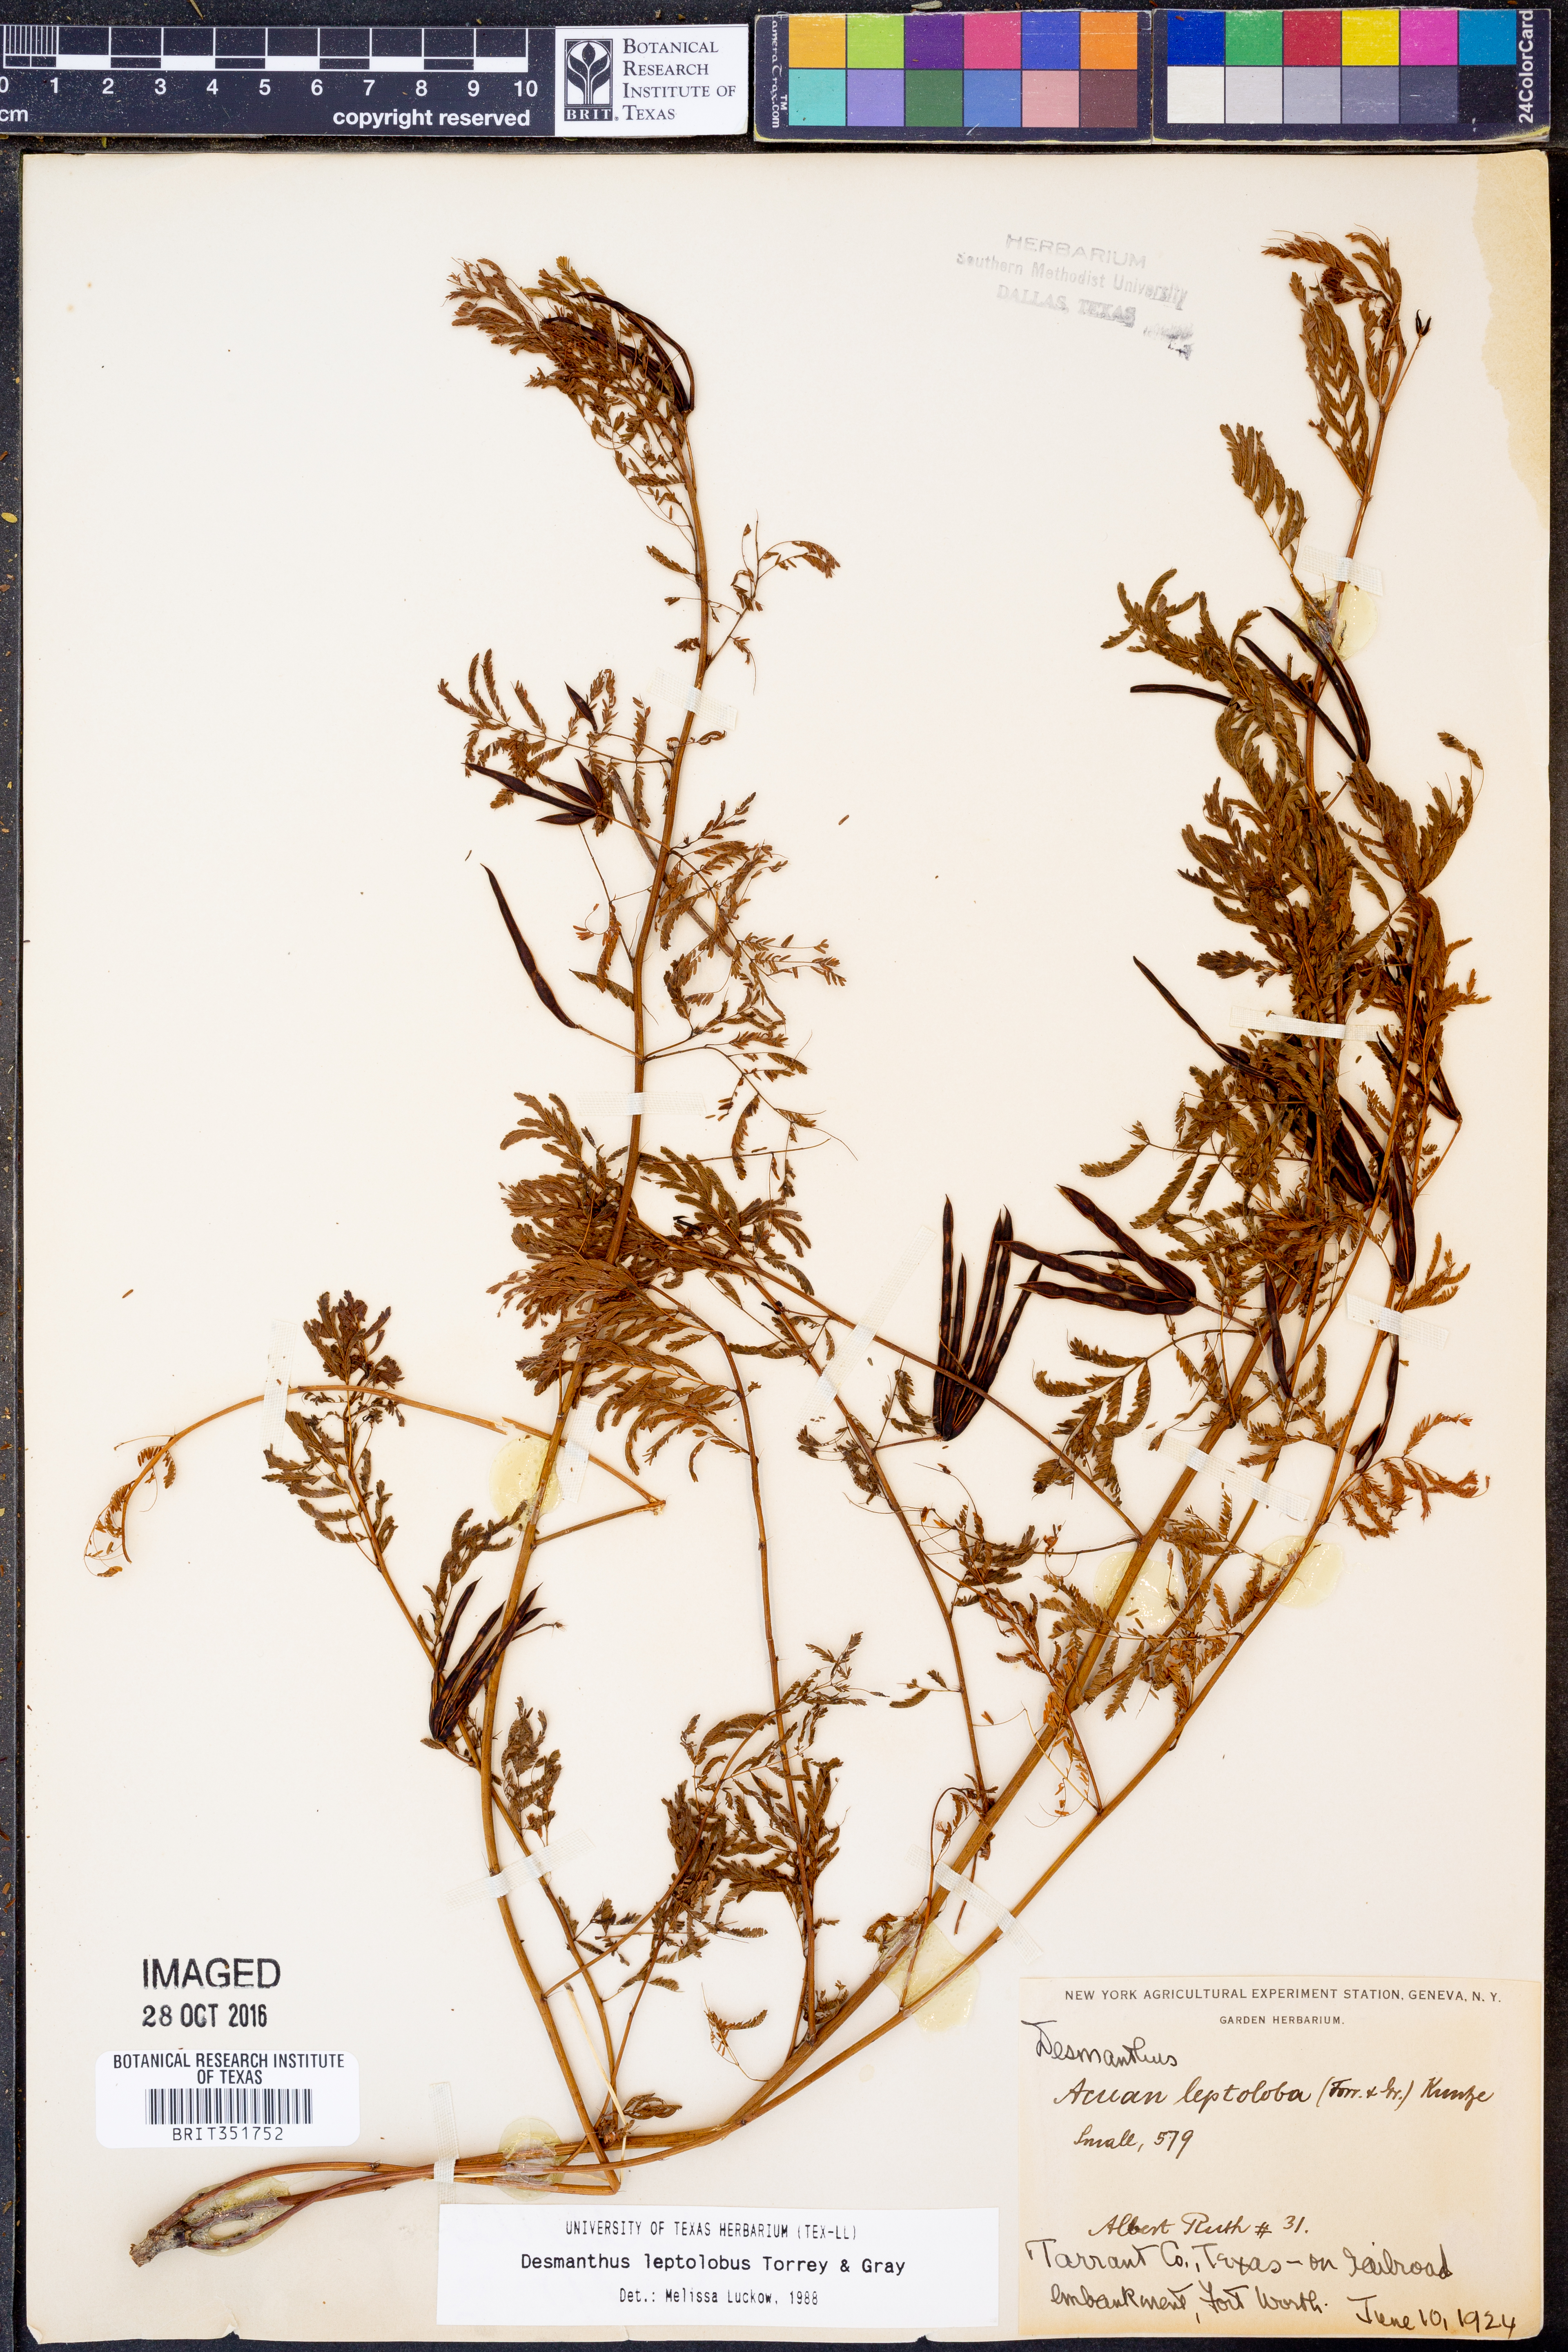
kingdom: Plantae
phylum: Tracheophyta
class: Magnoliopsida
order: Fabales
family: Fabaceae
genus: Desmanthus
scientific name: Desmanthus leptolobus
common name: Prairie-mimosa
